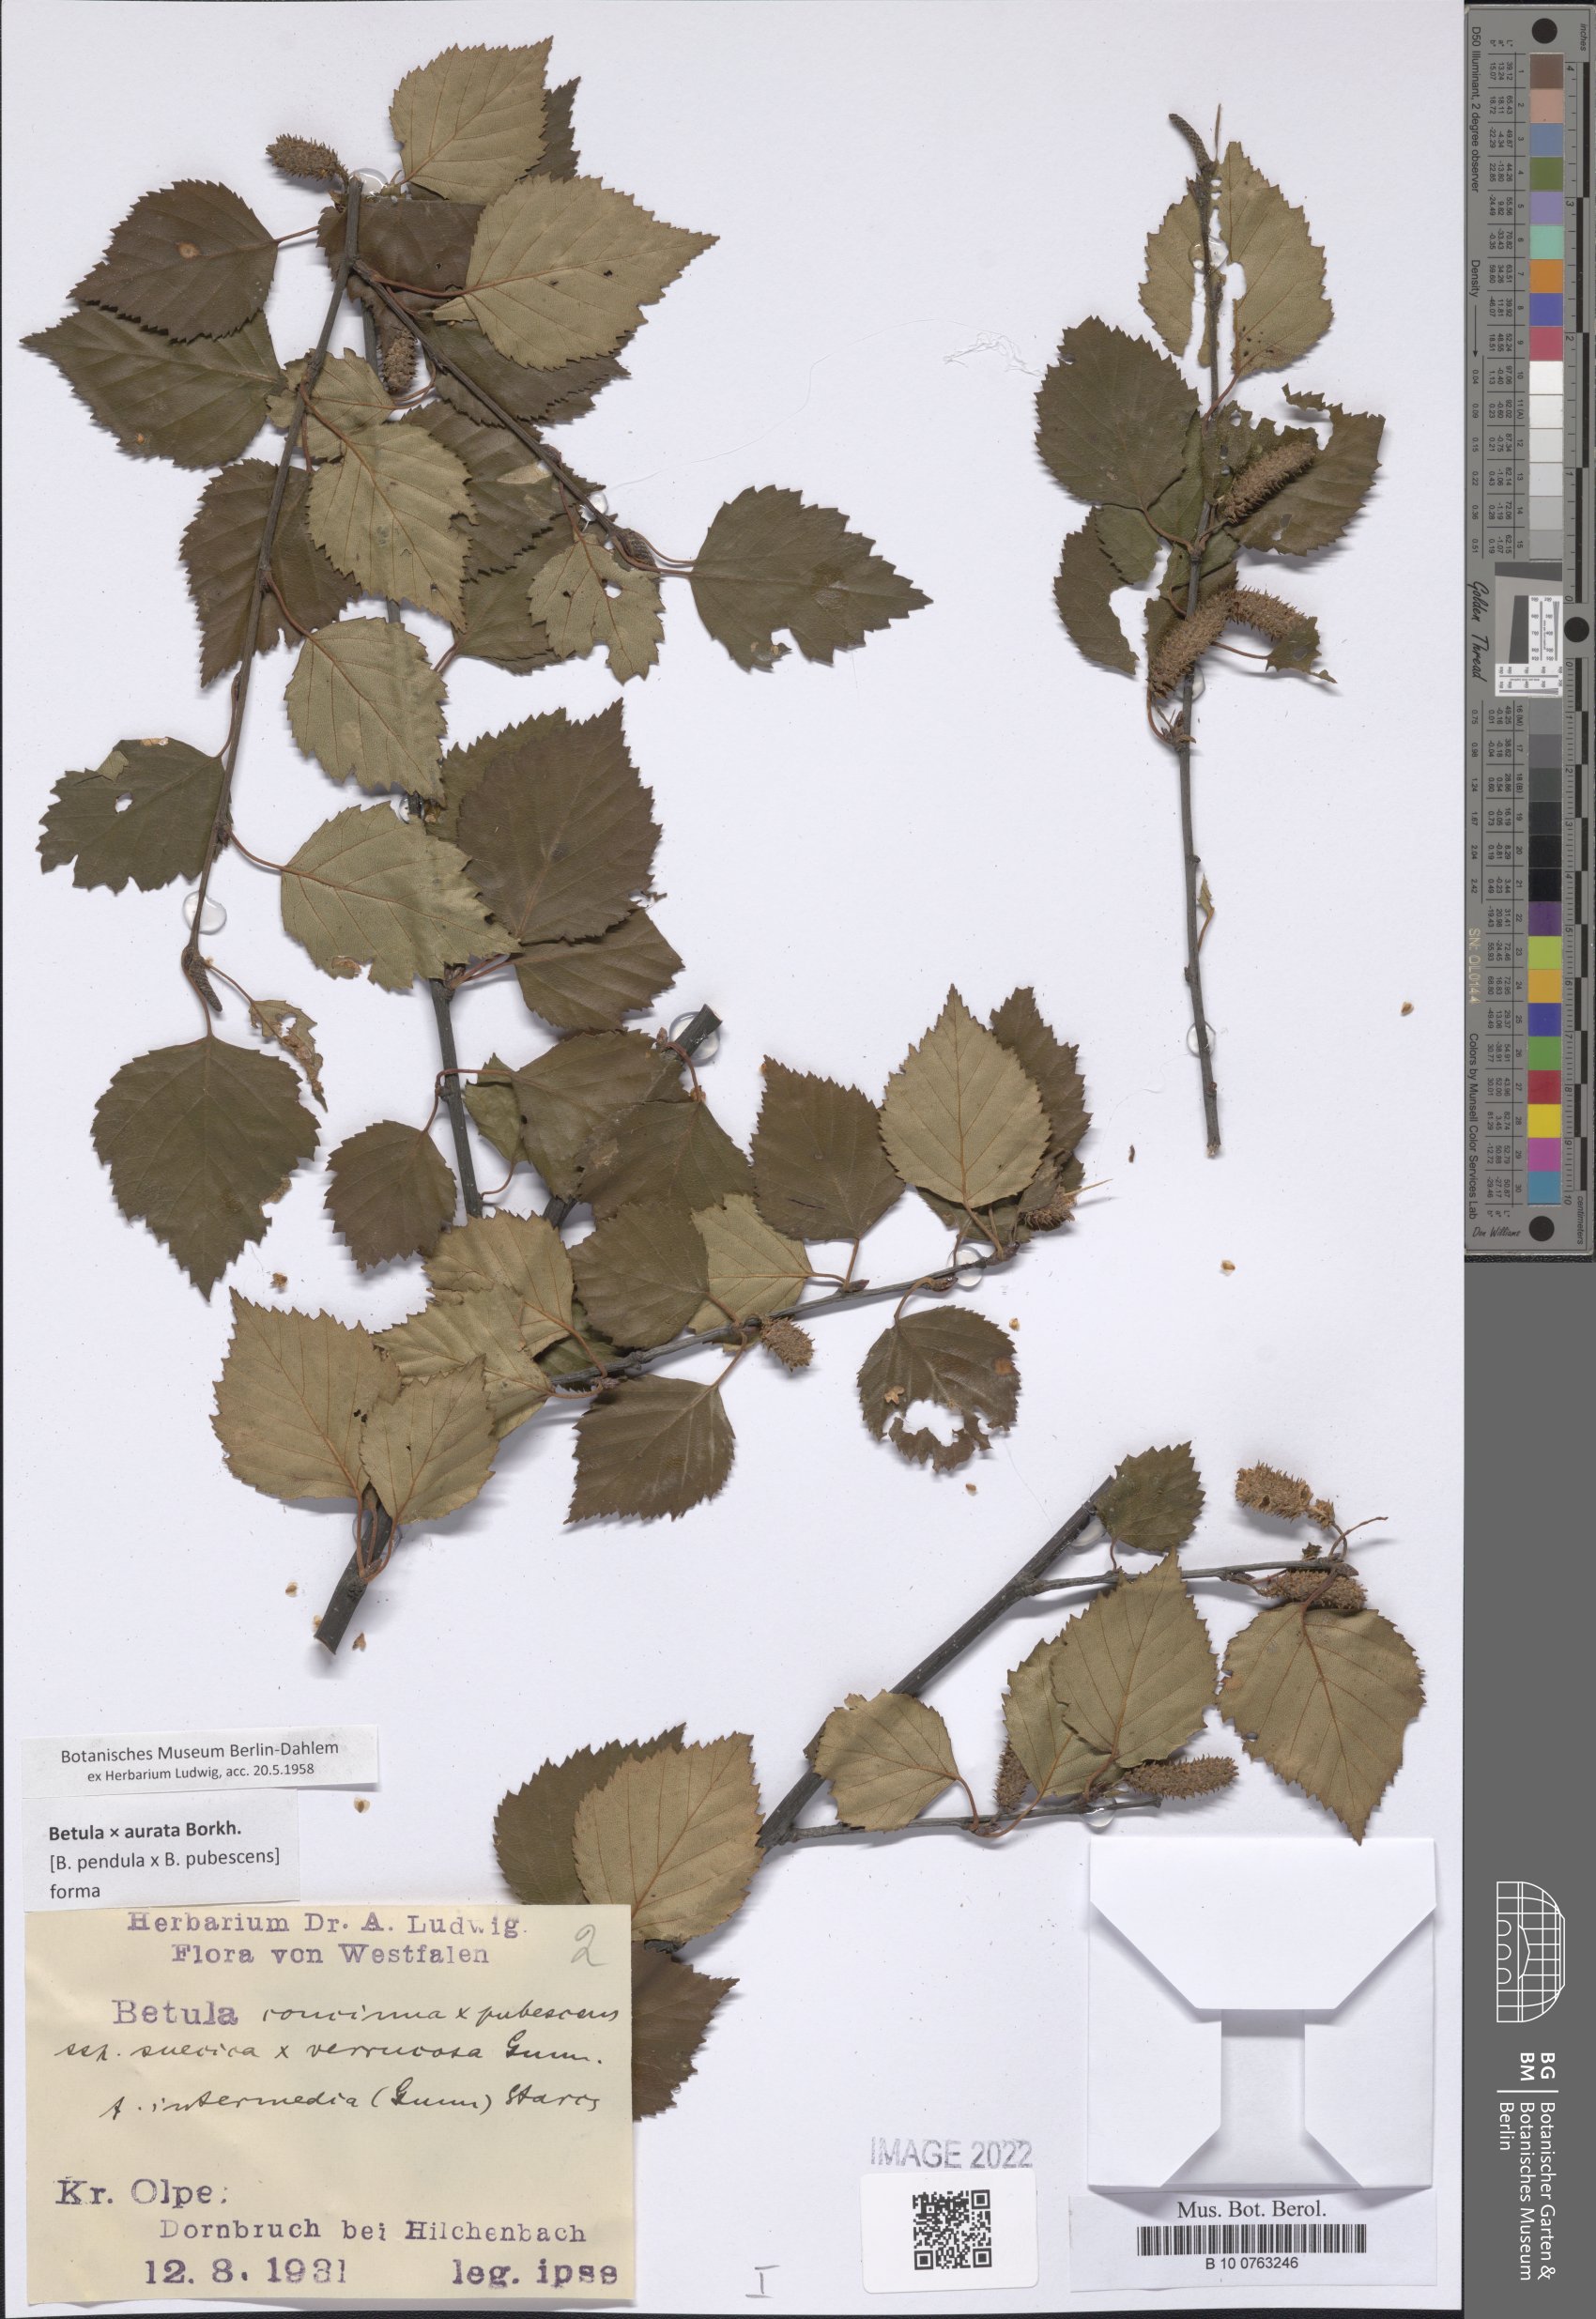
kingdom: Plantae
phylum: Tracheophyta
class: Magnoliopsida
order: Santalales
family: Loranthaceae
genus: Tripodanthus
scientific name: Tripodanthus acutifolius
